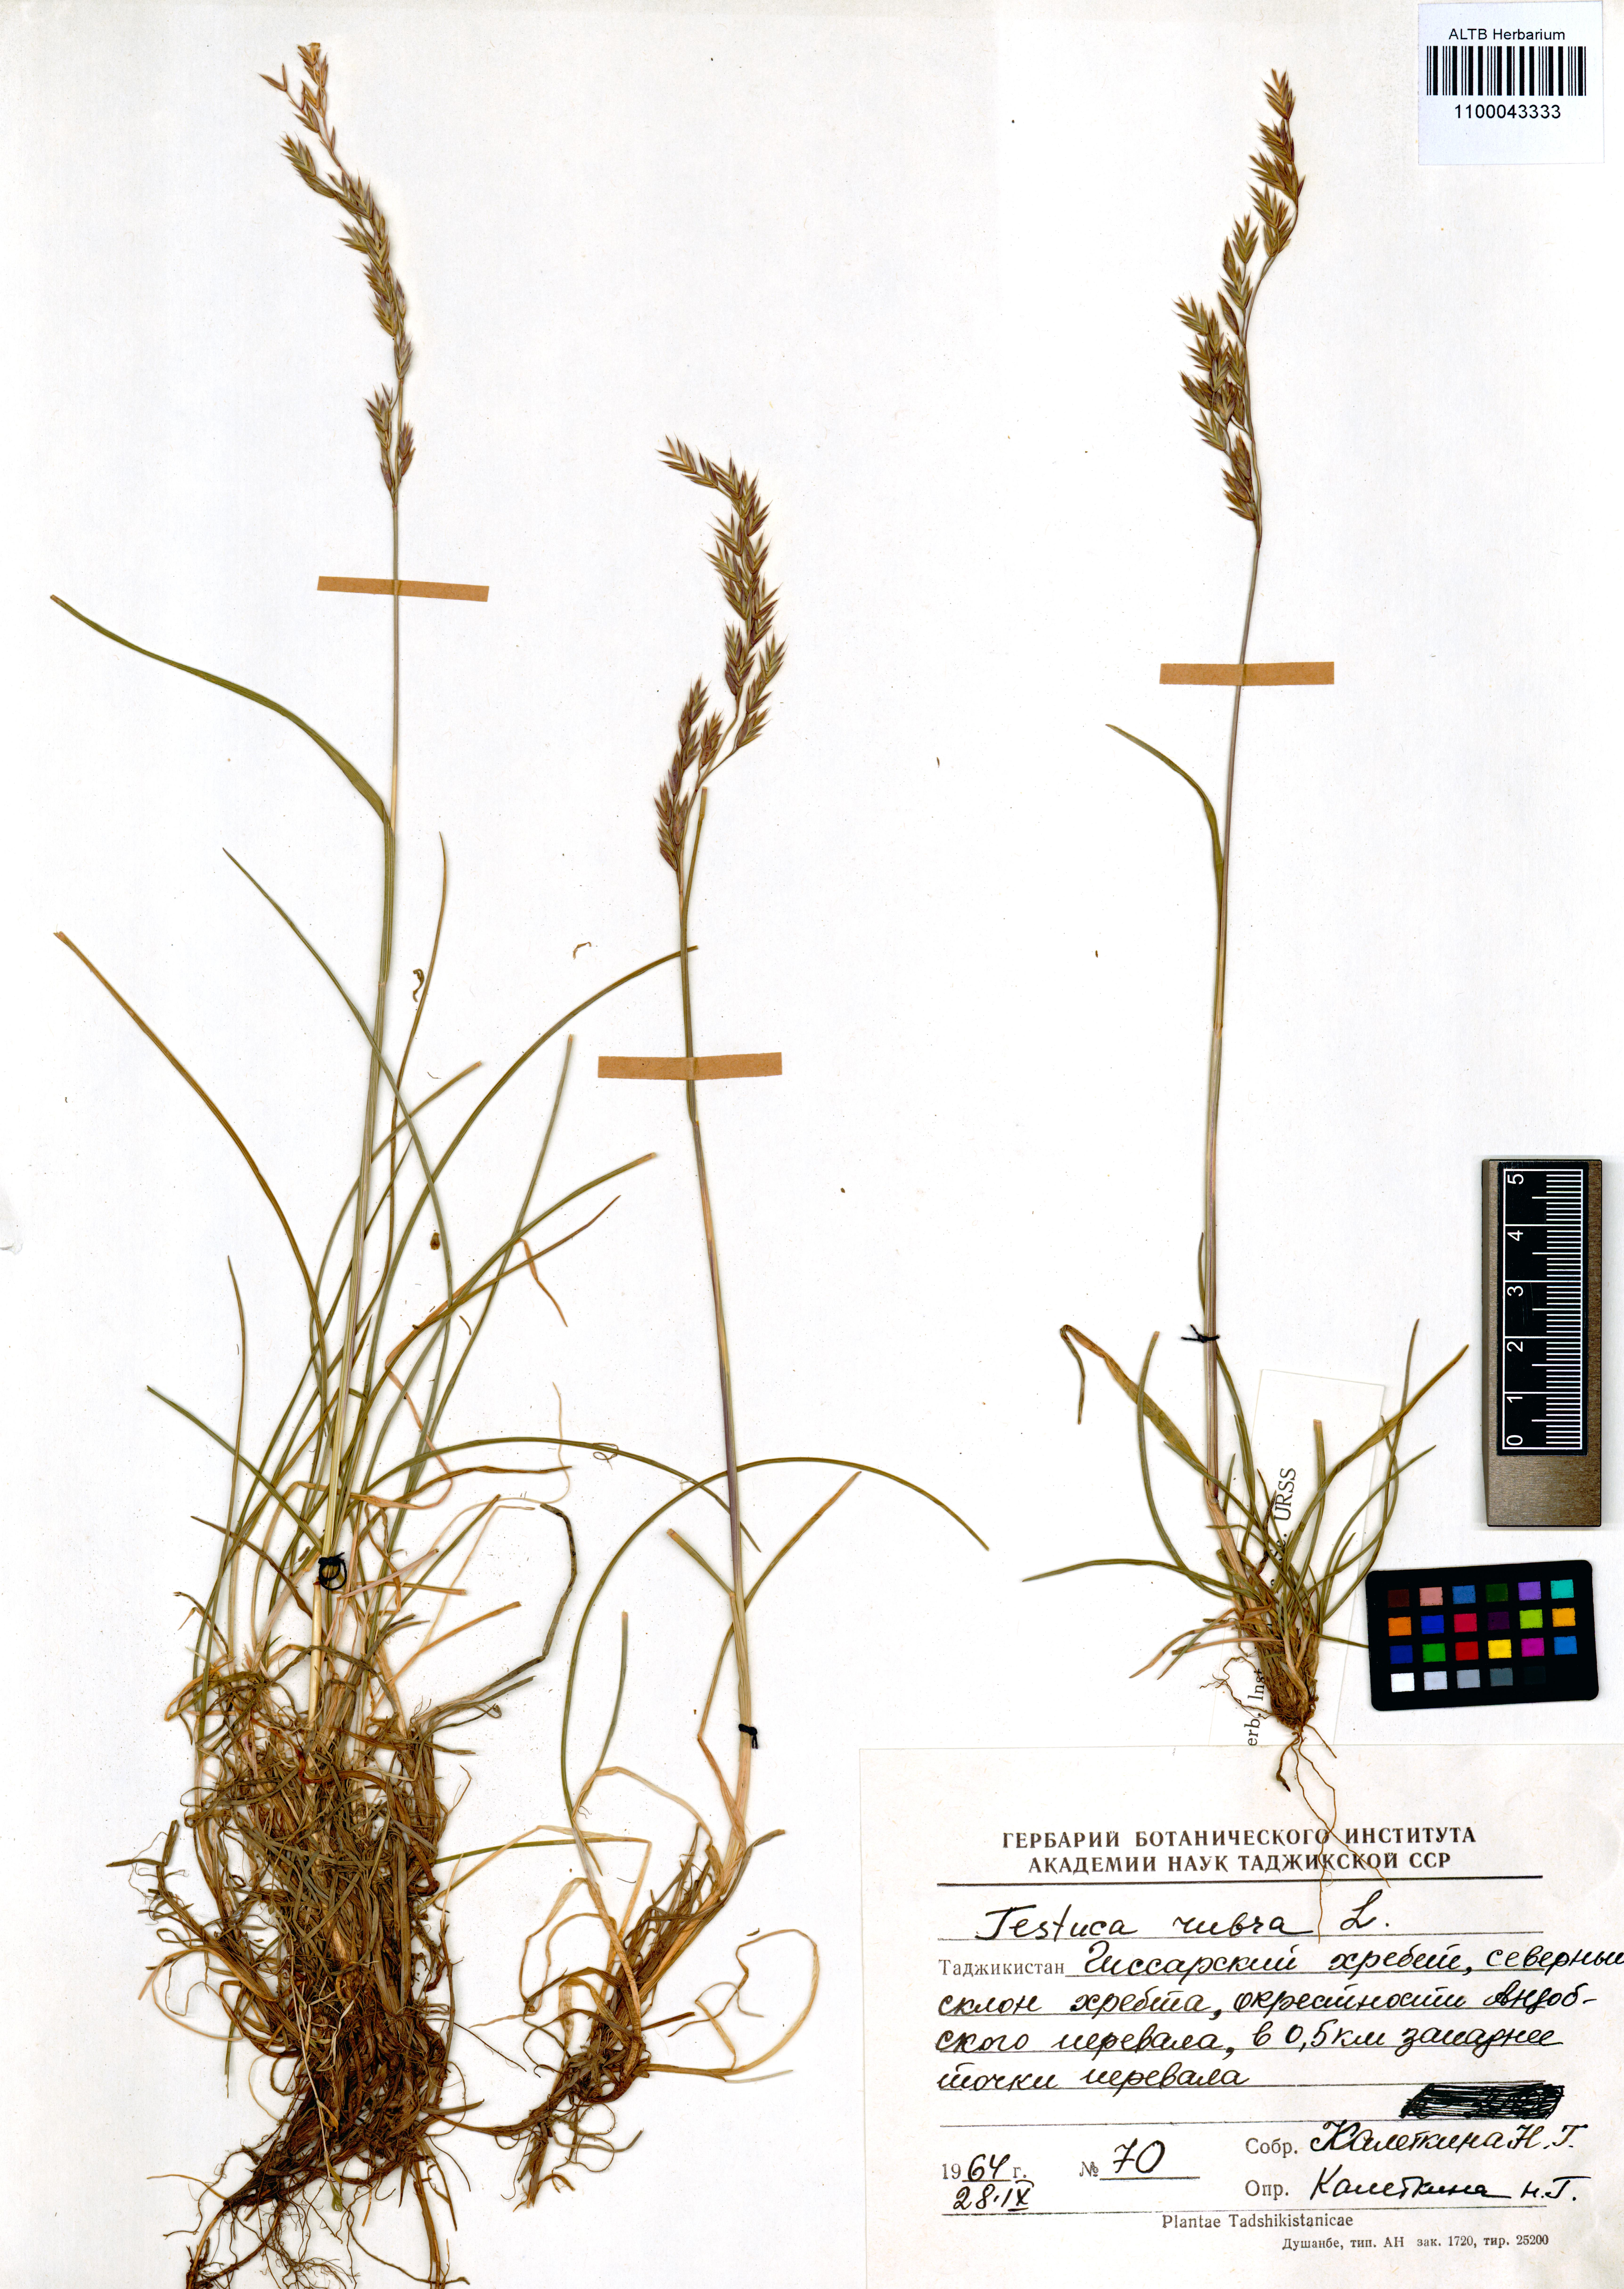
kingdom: Plantae
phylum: Tracheophyta
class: Liliopsida
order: Poales
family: Poaceae
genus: Festuca
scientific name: Festuca rubra
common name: Red fescue
